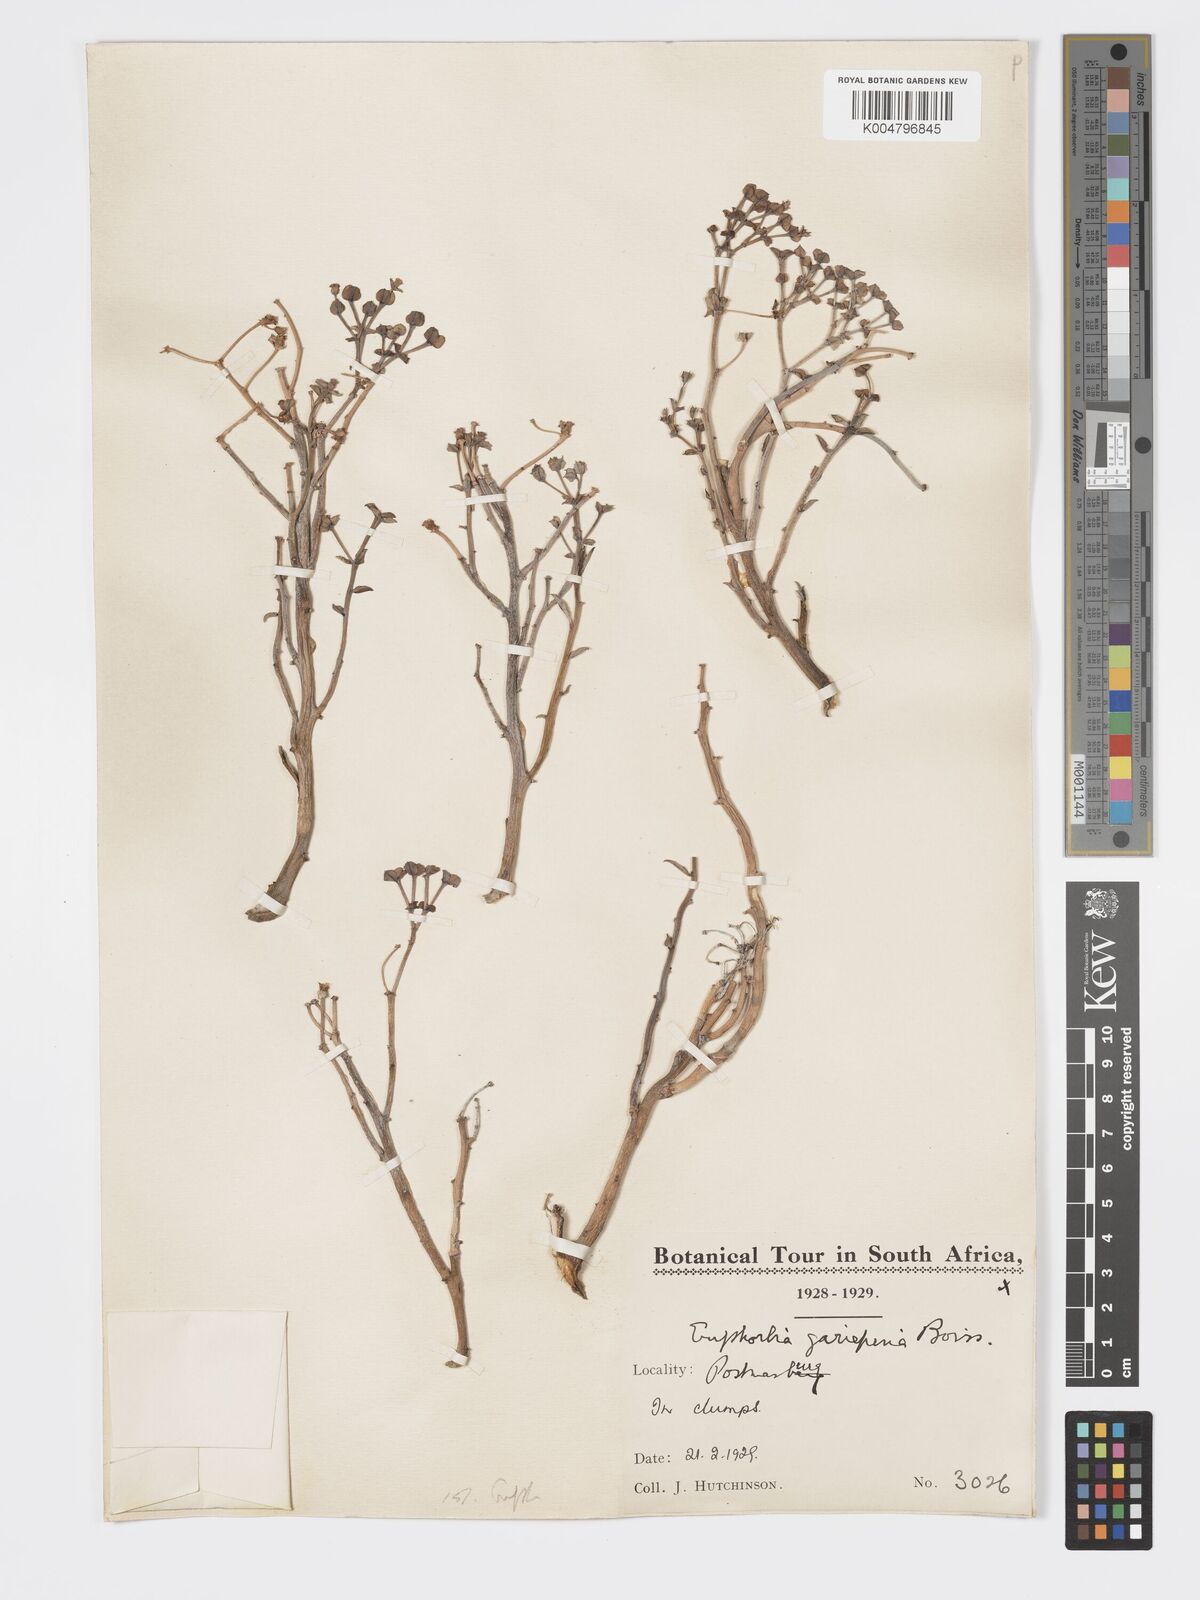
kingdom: Plantae
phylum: Tracheophyta
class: Magnoliopsida
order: Malpighiales
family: Euphorbiaceae
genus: Euphorbia
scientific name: Euphorbia gariepina
